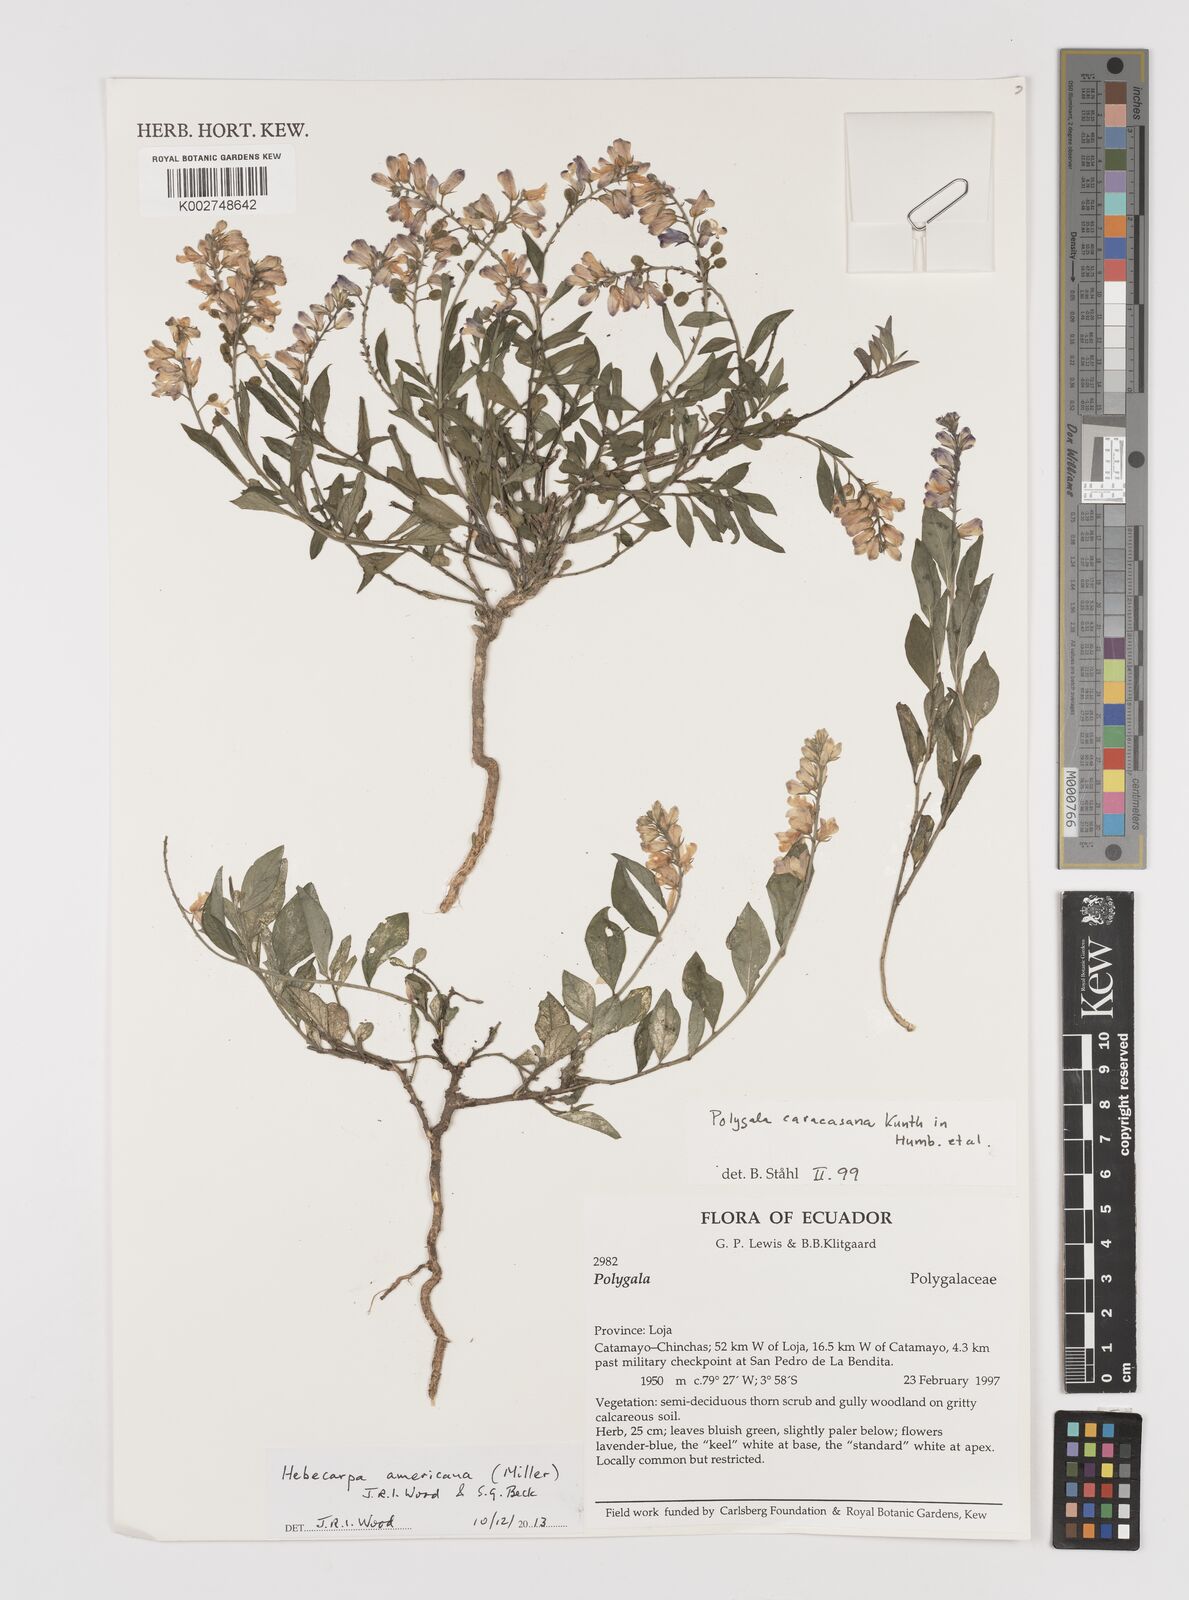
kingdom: Plantae
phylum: Tracheophyta
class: Magnoliopsida
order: Fabales
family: Polygalaceae
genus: Hebecarpa
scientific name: Hebecarpa americana
